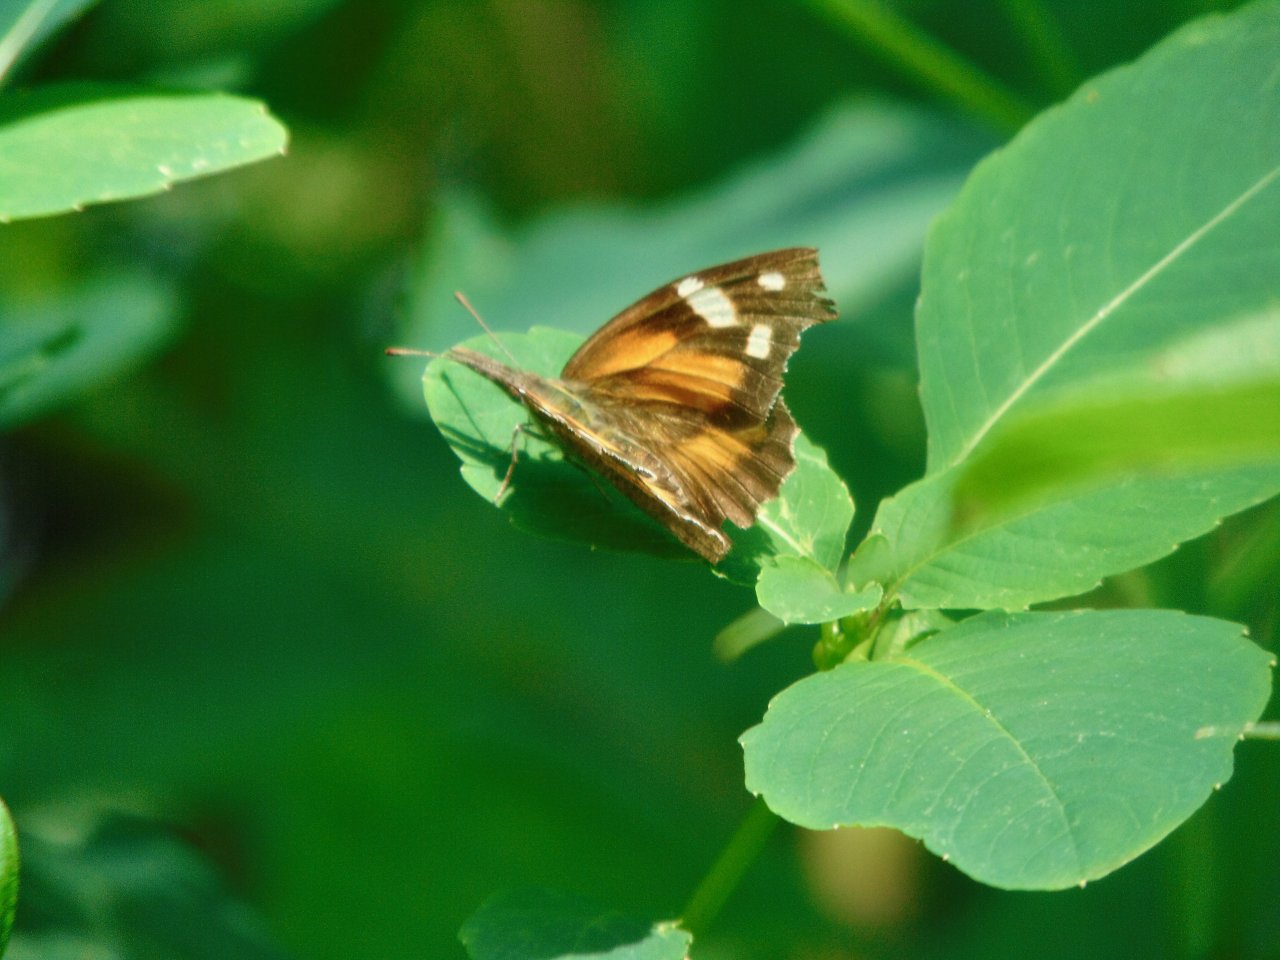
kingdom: Animalia
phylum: Arthropoda
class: Insecta
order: Lepidoptera
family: Nymphalidae
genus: Libytheana
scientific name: Libytheana carinenta
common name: American Snout
